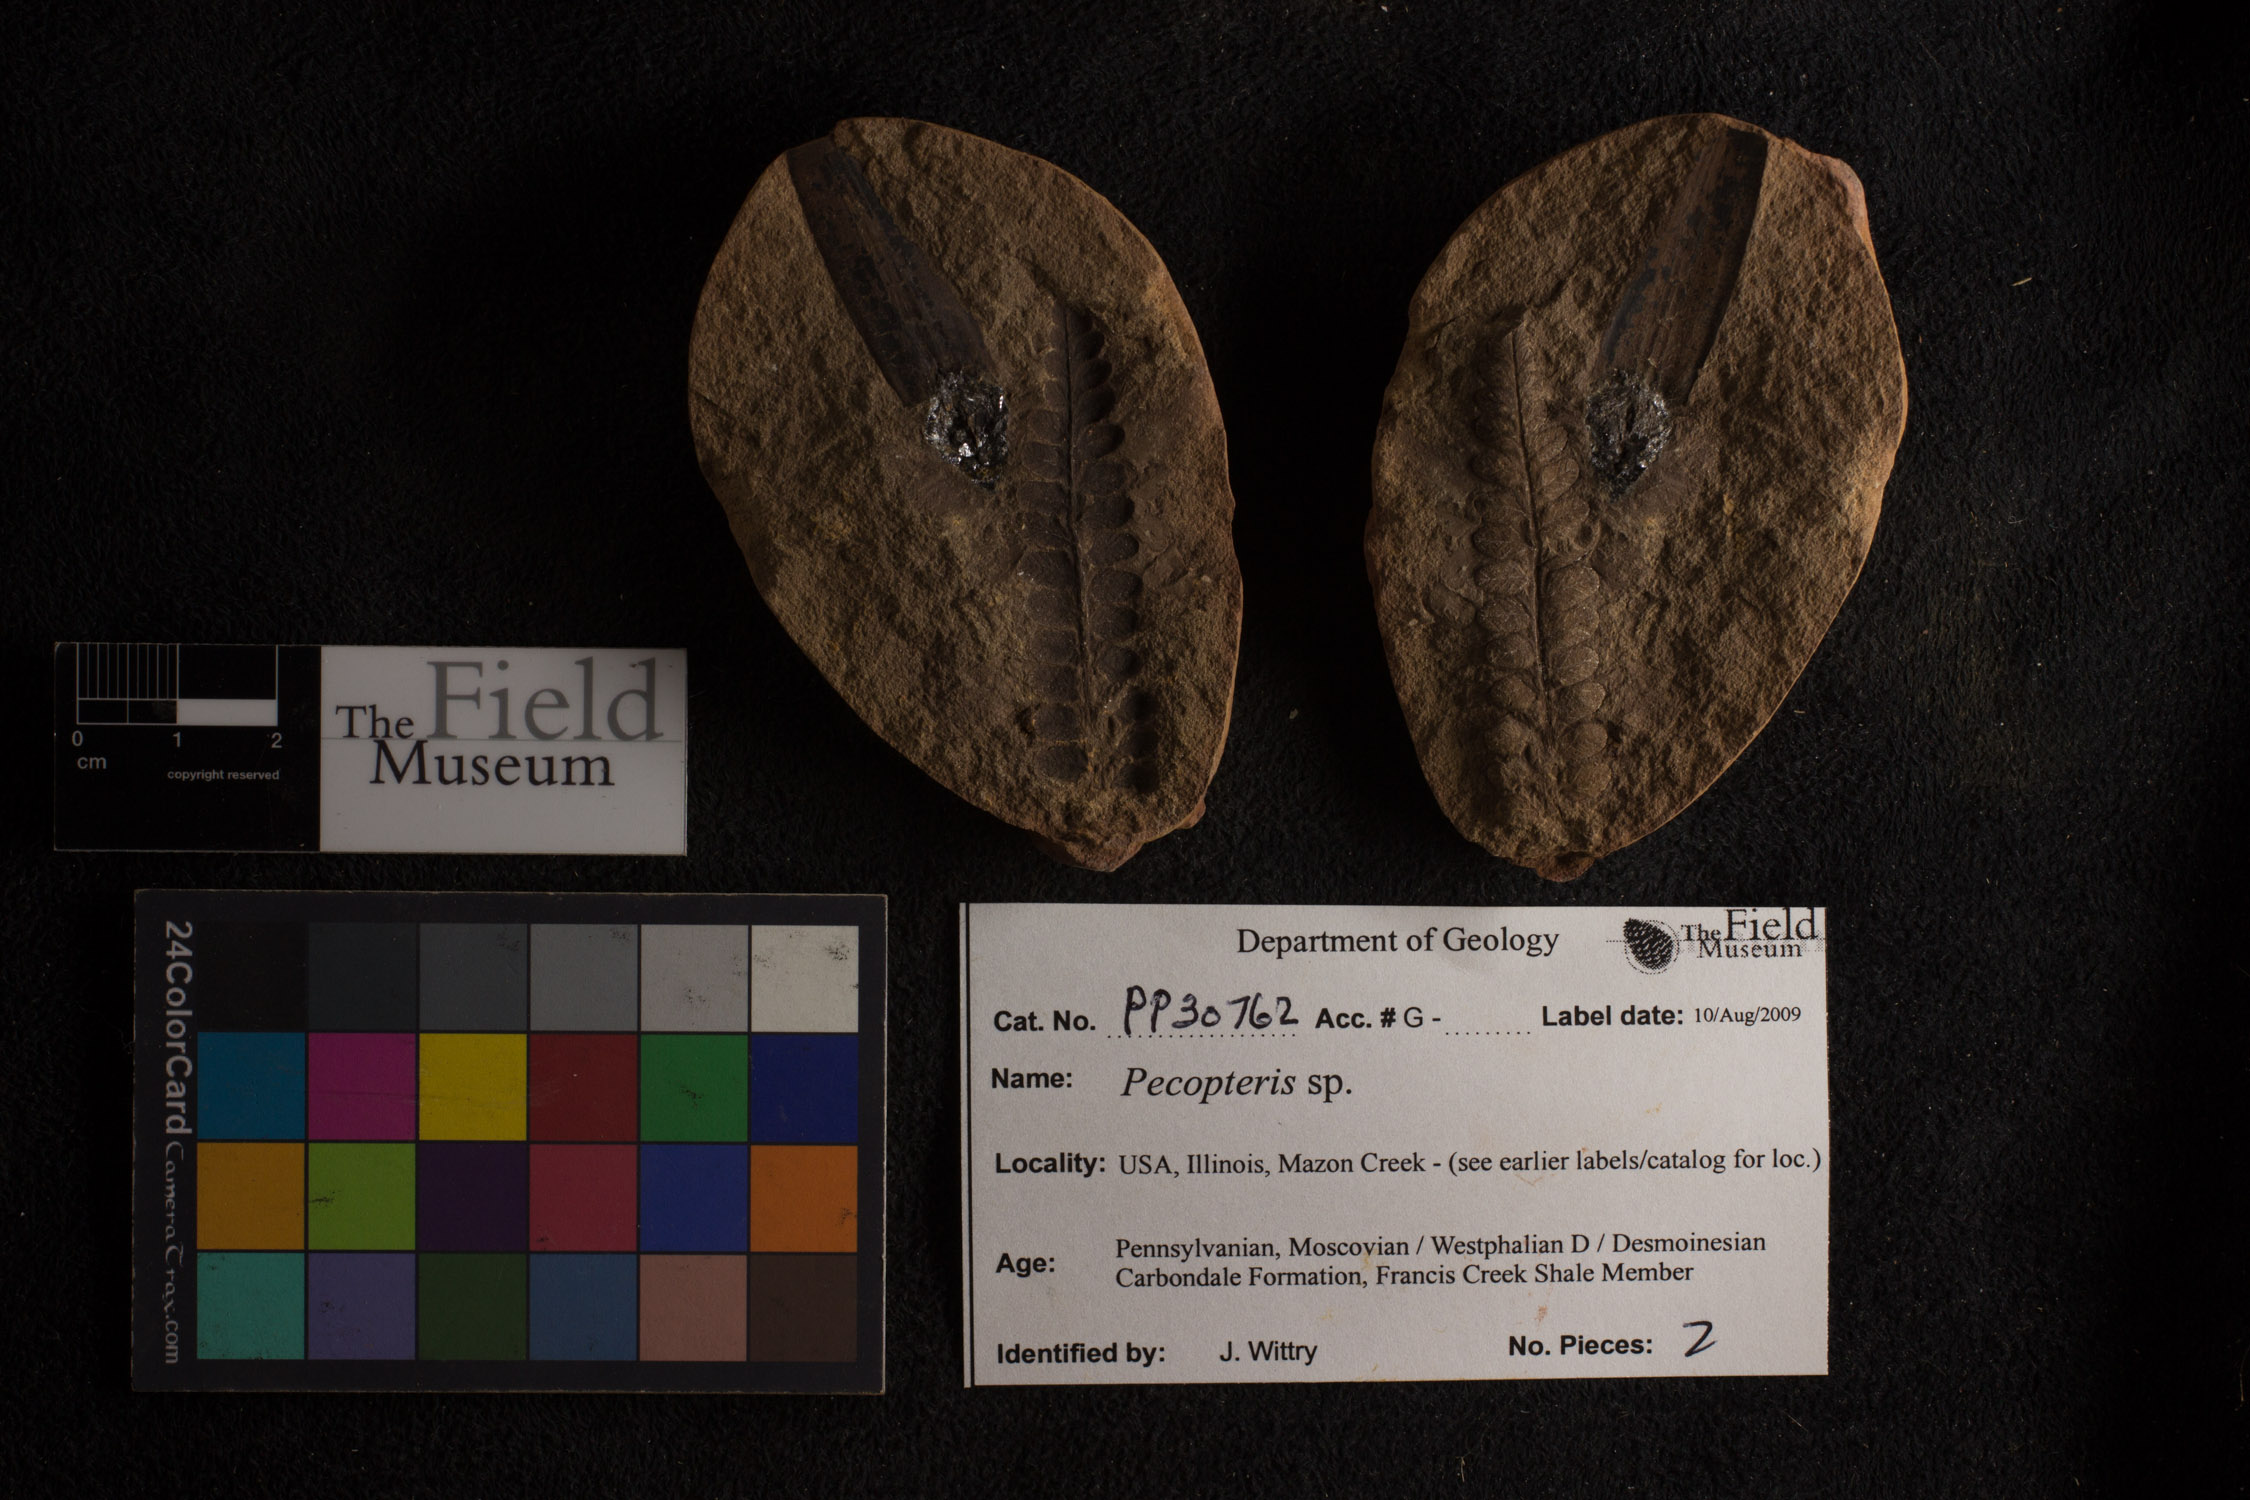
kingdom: Plantae
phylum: Tracheophyta
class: Polypodiopsida
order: Marattiales
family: Asterothecaceae
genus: Pecopteris
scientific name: Pecopteris
